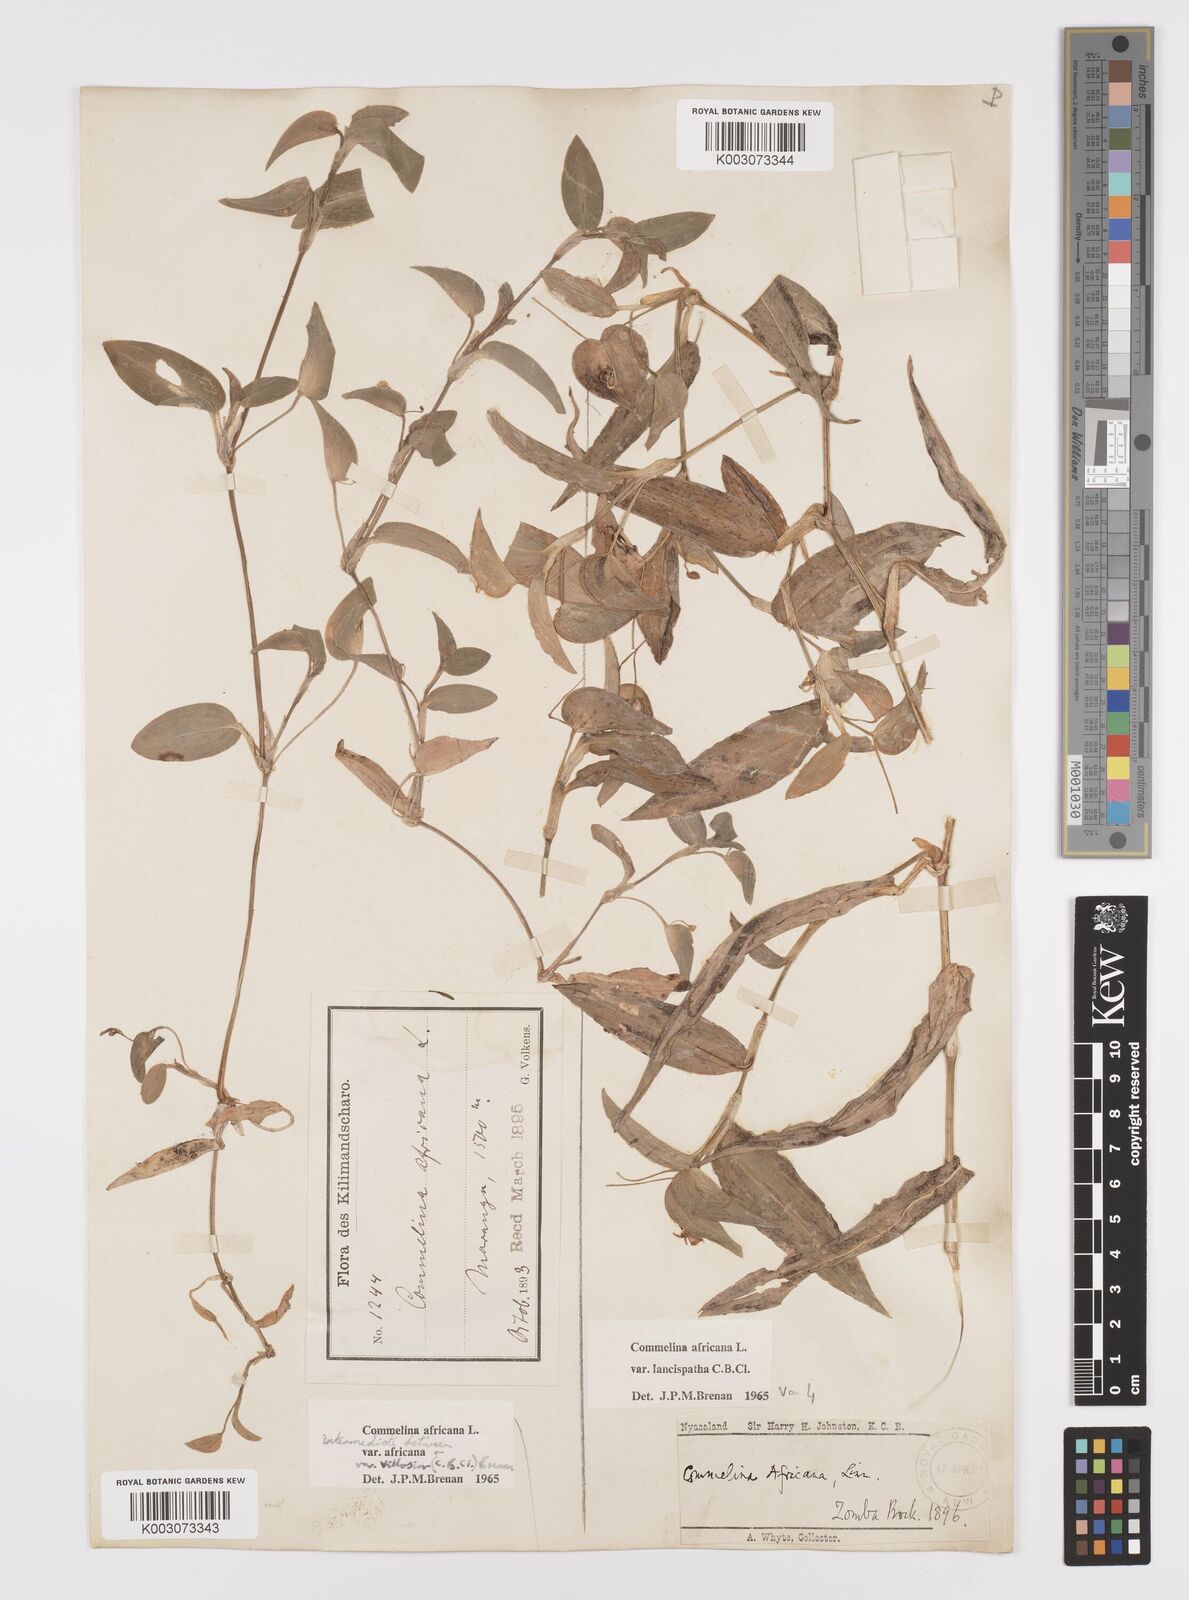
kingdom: Plantae
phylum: Tracheophyta
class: Liliopsida
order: Commelinales
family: Commelinaceae
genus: Commelina
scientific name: Commelina africana
